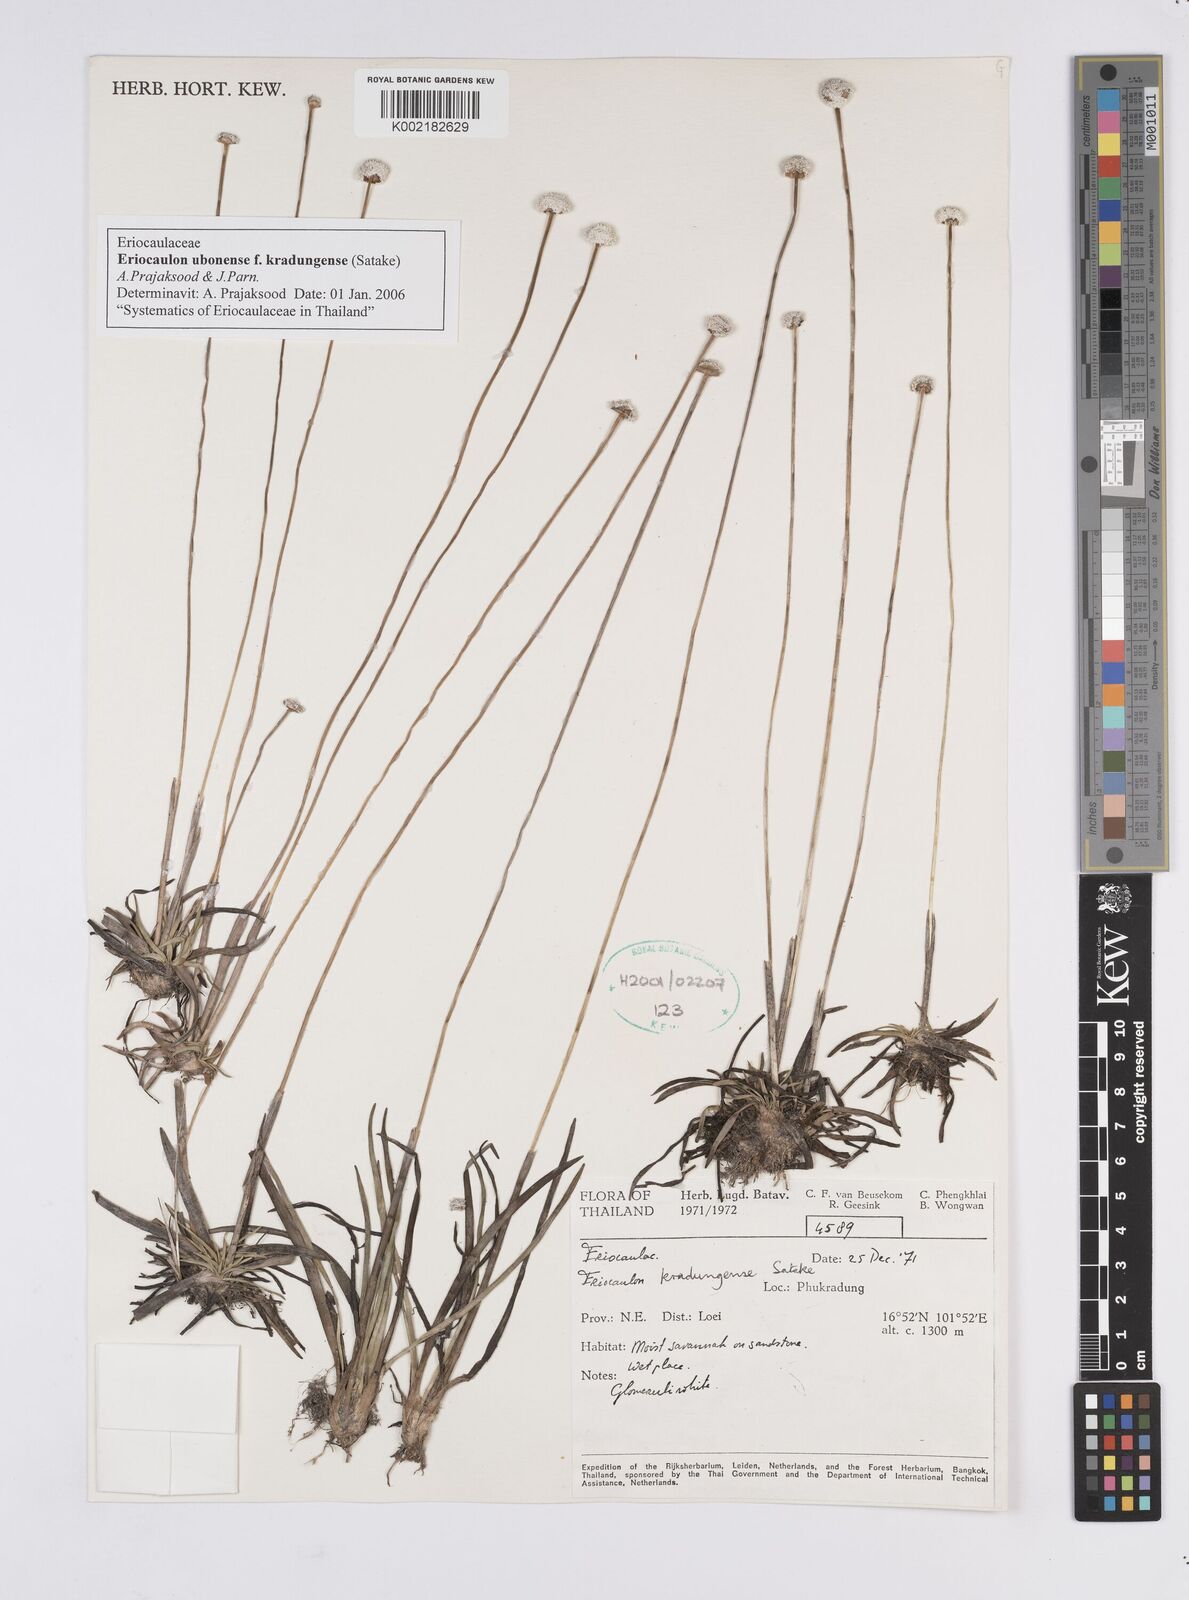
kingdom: Plantae
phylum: Tracheophyta
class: Liliopsida
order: Poales
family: Eriocaulaceae
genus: Eriocaulon
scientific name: Eriocaulon ubonense
